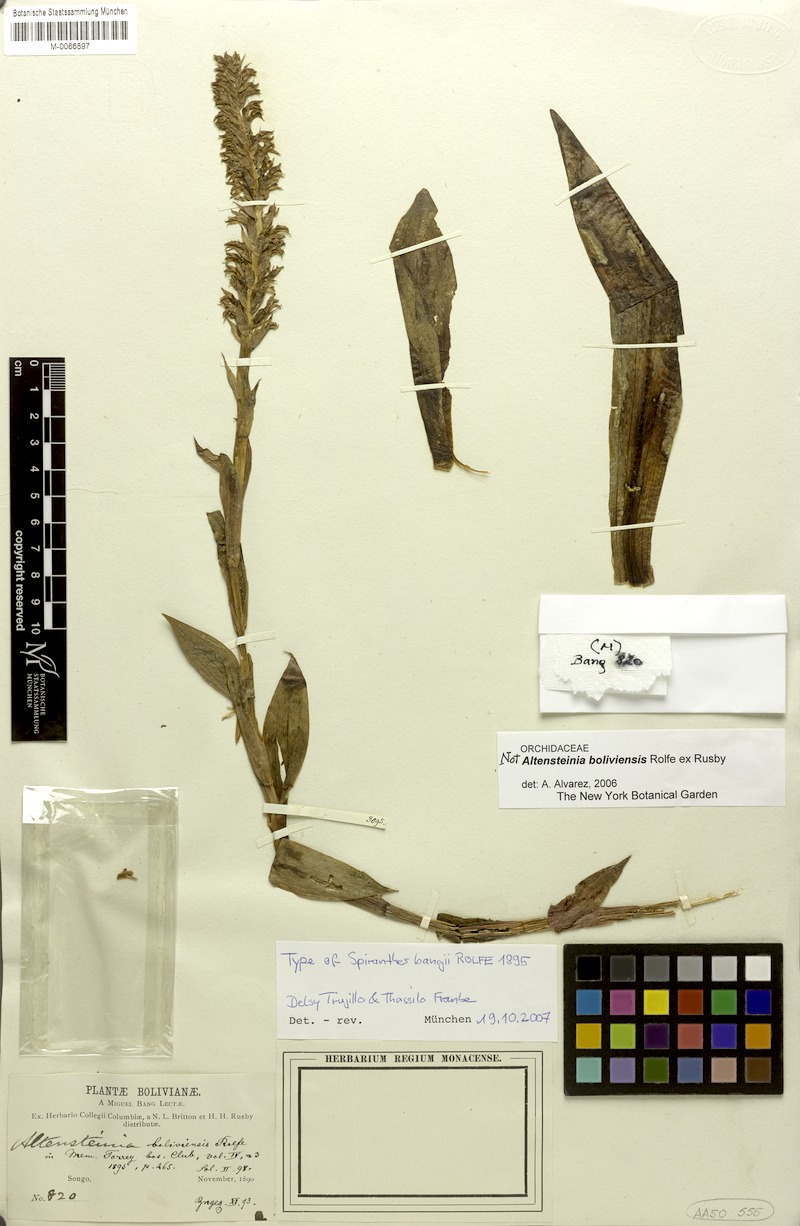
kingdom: Plantae
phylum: Tracheophyta
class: Liliopsida
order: Asparagales
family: Orchidaceae
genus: Cyclopogon
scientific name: Cyclopogon bangii
